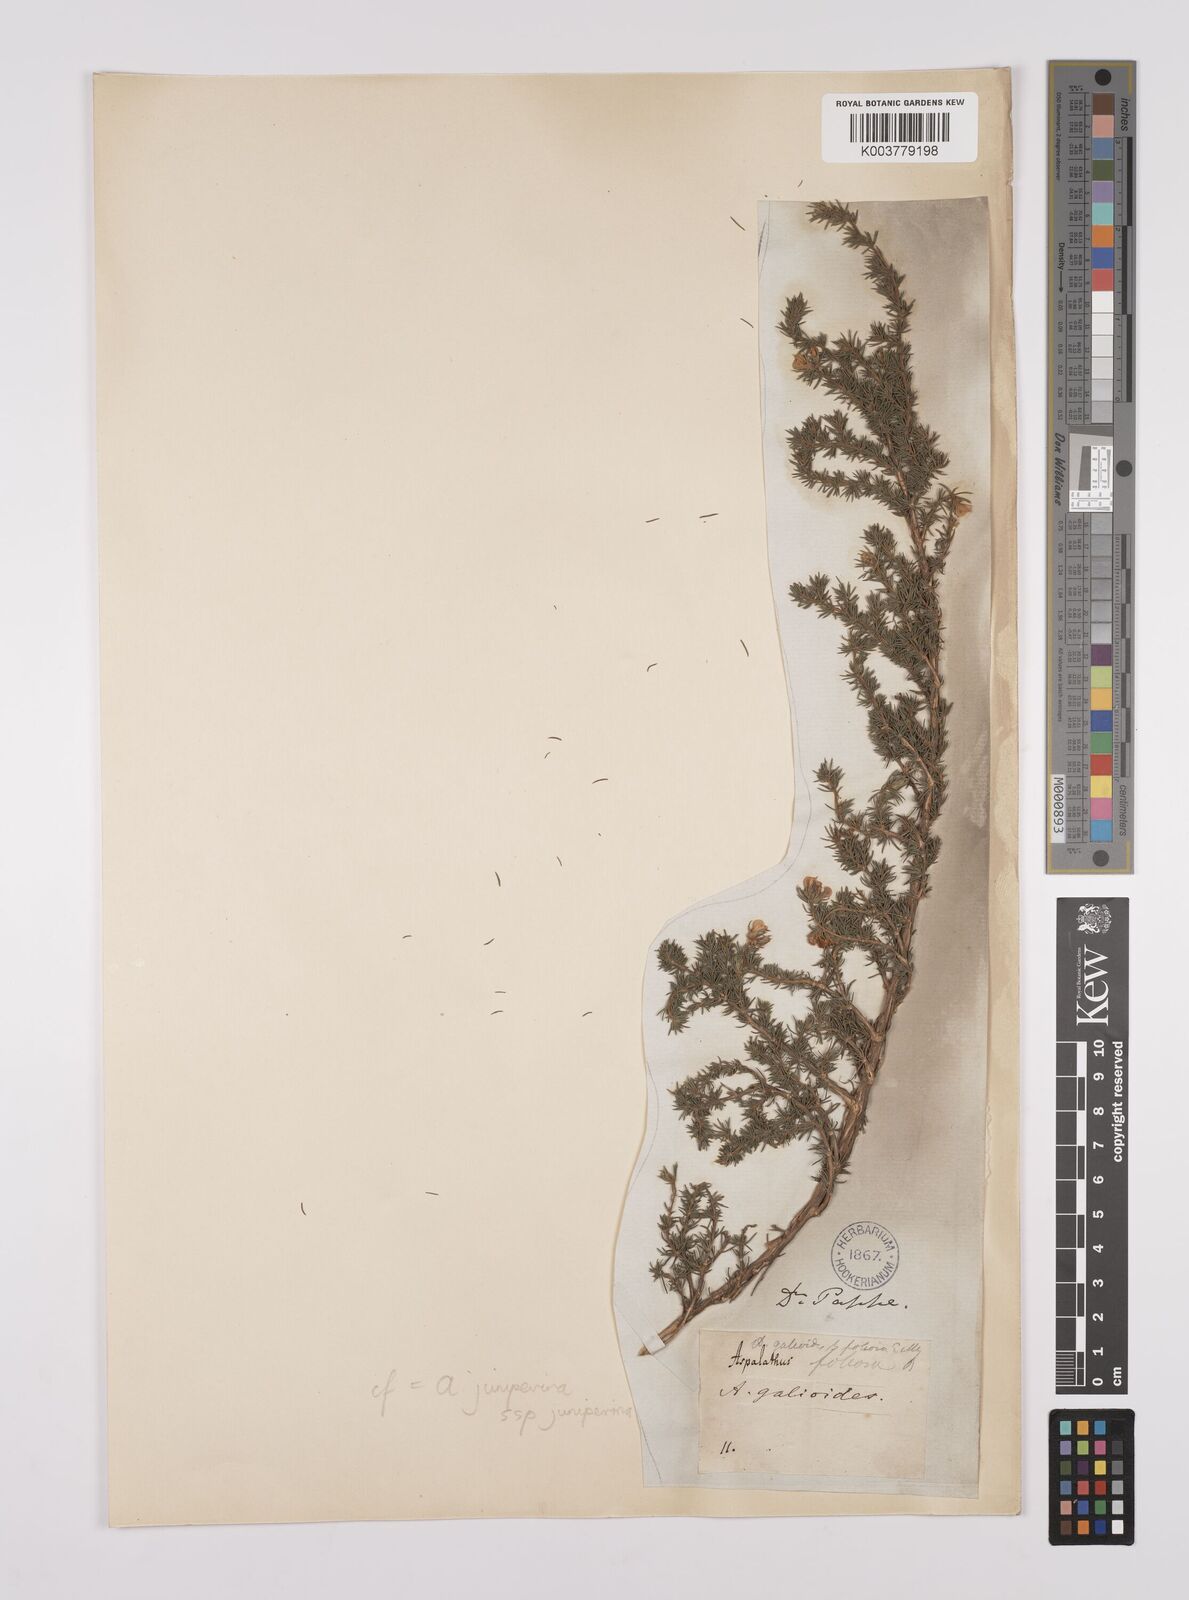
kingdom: Plantae
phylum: Tracheophyta
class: Magnoliopsida
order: Fabales
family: Fabaceae
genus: Aspalathus
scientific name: Aspalathus juniperina
